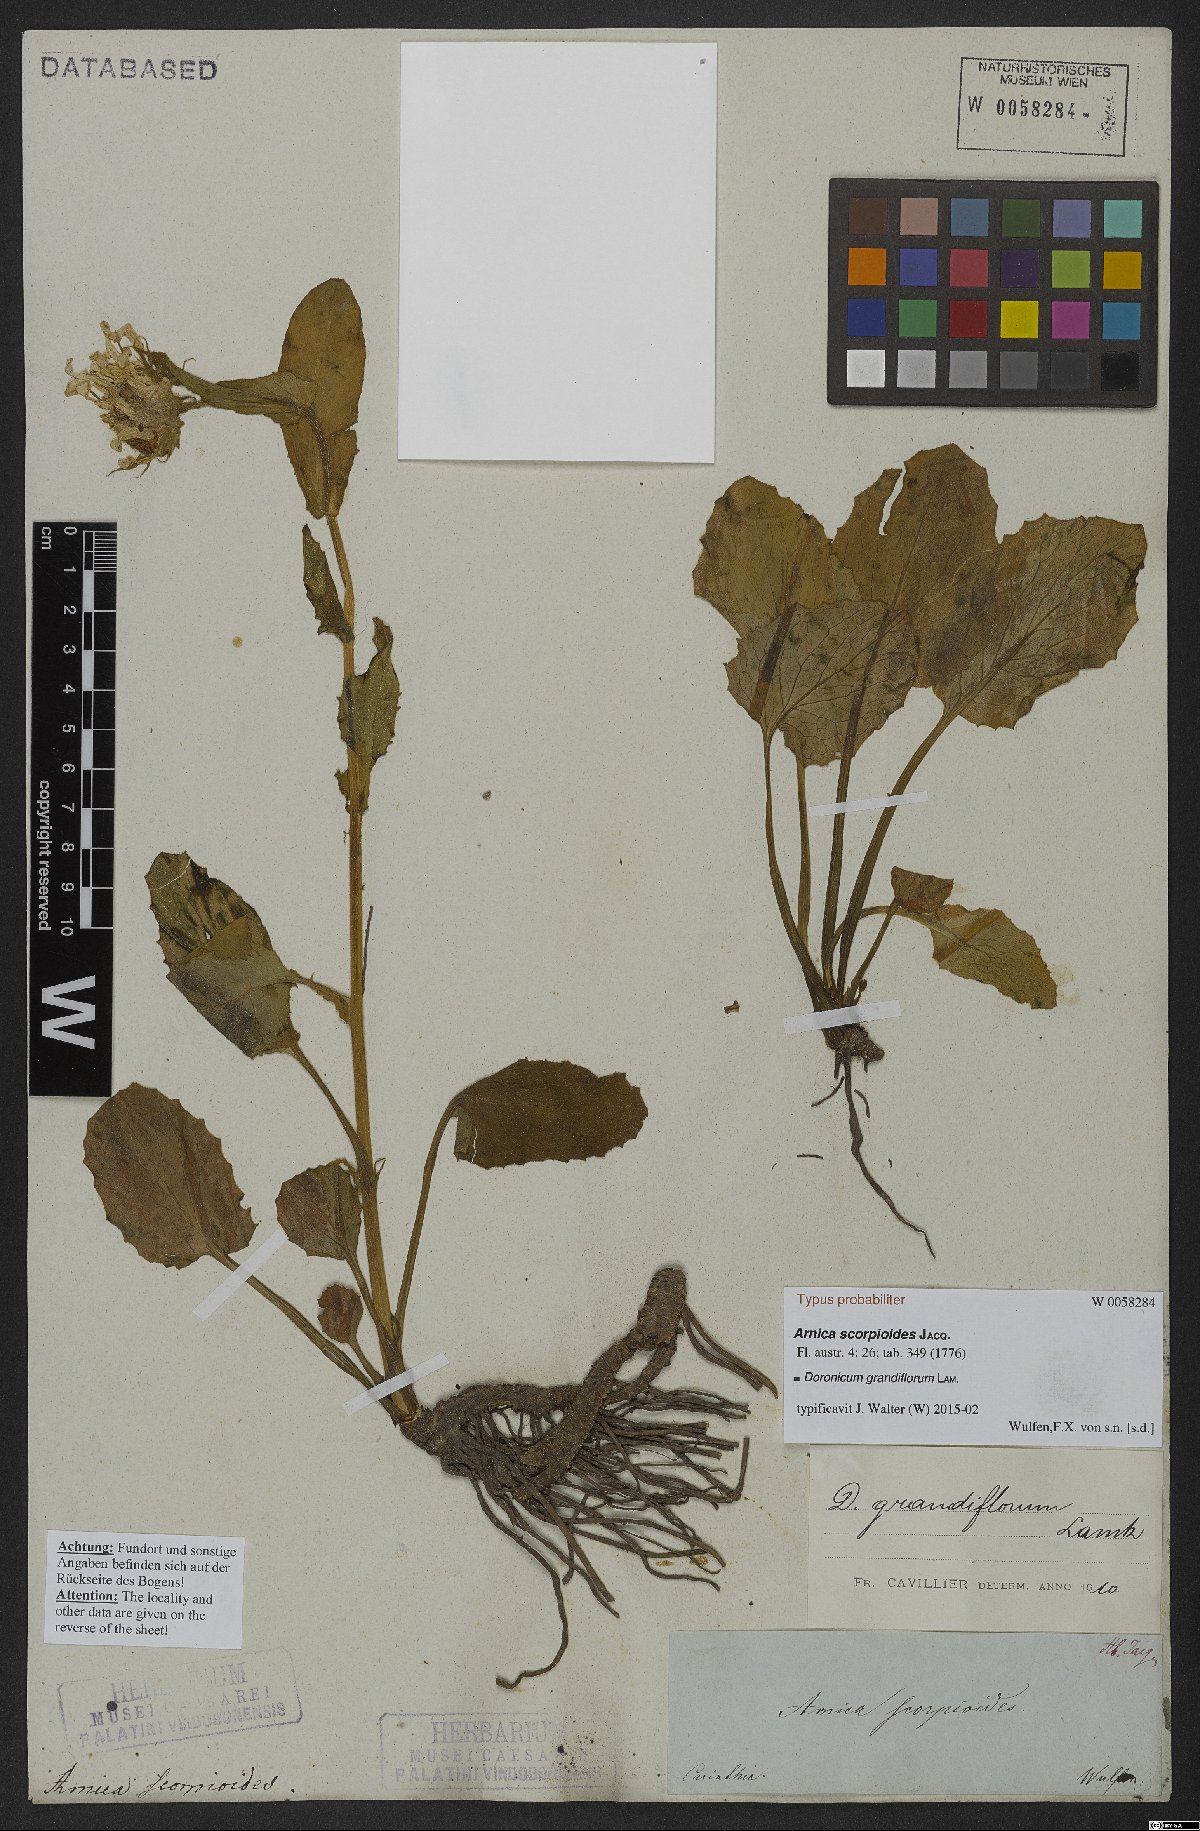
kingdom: Plantae
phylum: Tracheophyta
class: Magnoliopsida
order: Asterales
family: Asteraceae
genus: Doronicum
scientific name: Doronicum grandiflorum
